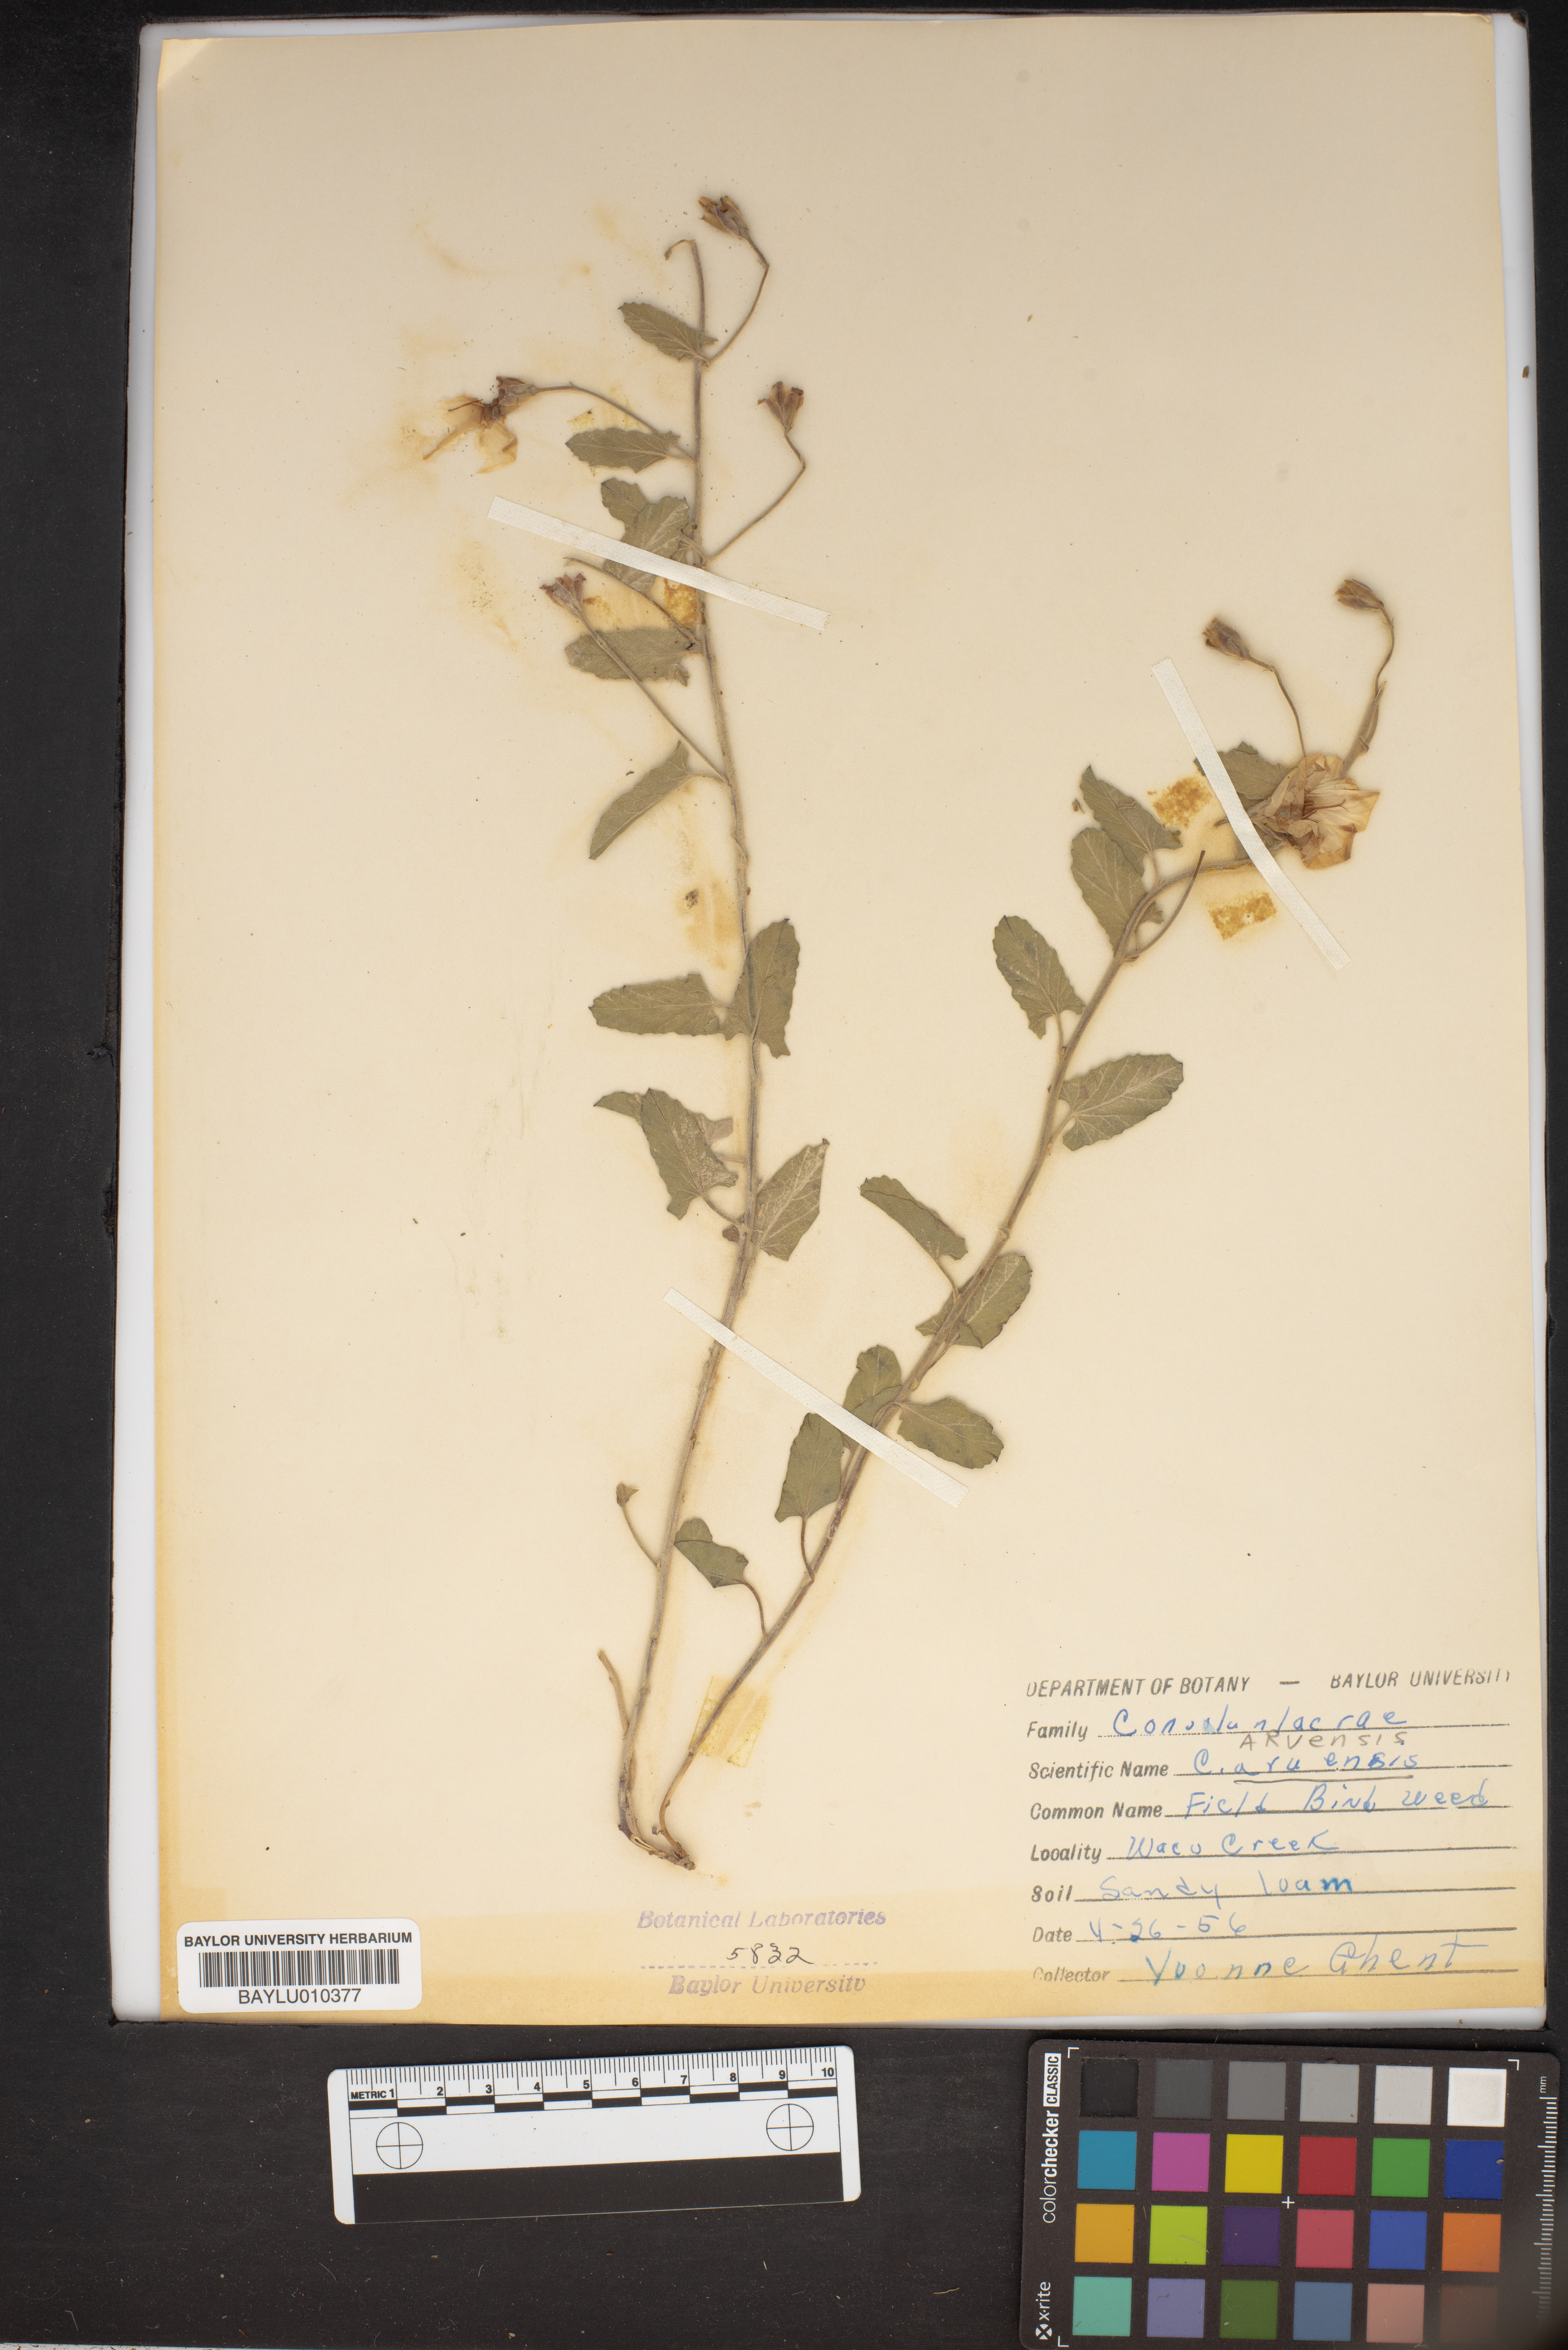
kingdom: Plantae
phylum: Tracheophyta
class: Magnoliopsida
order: Solanales
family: Convolvulaceae
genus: Convolvulus
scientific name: Convolvulus arvensis
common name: Field bindweed
